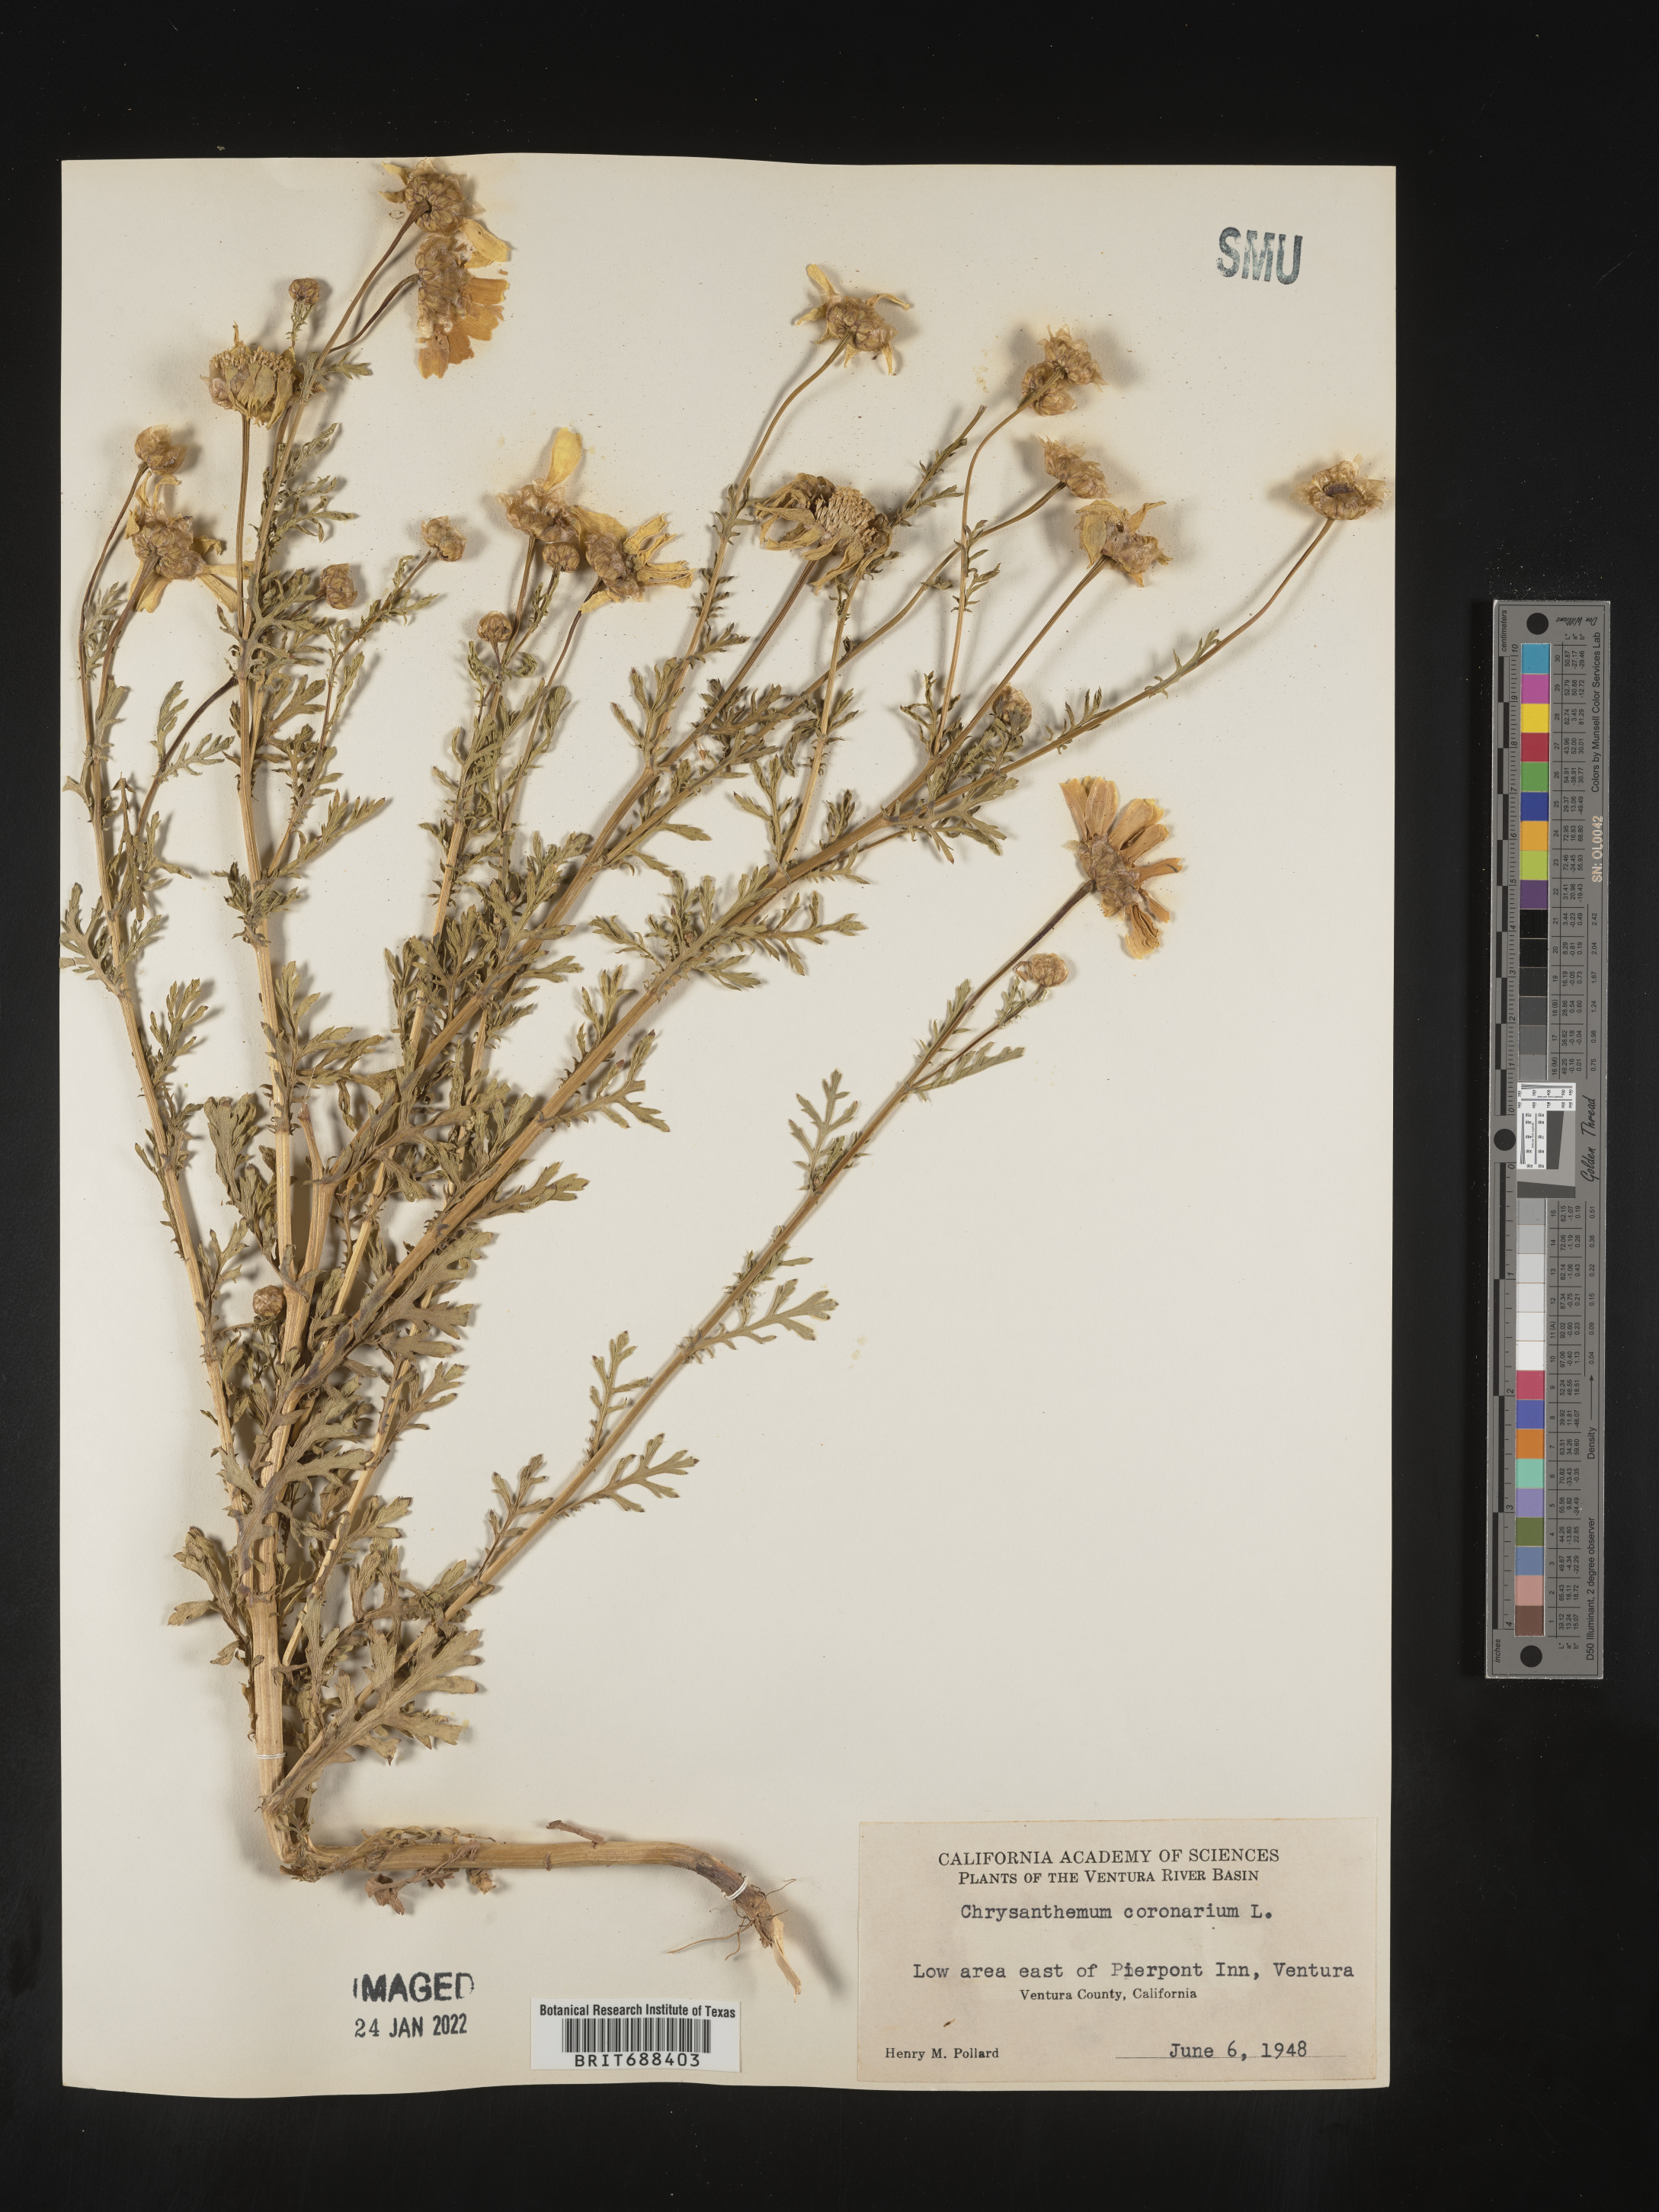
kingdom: Plantae
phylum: Tracheophyta
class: Magnoliopsida
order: Asterales
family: Asteraceae
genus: Chrysanthemum
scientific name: Chrysanthemum
